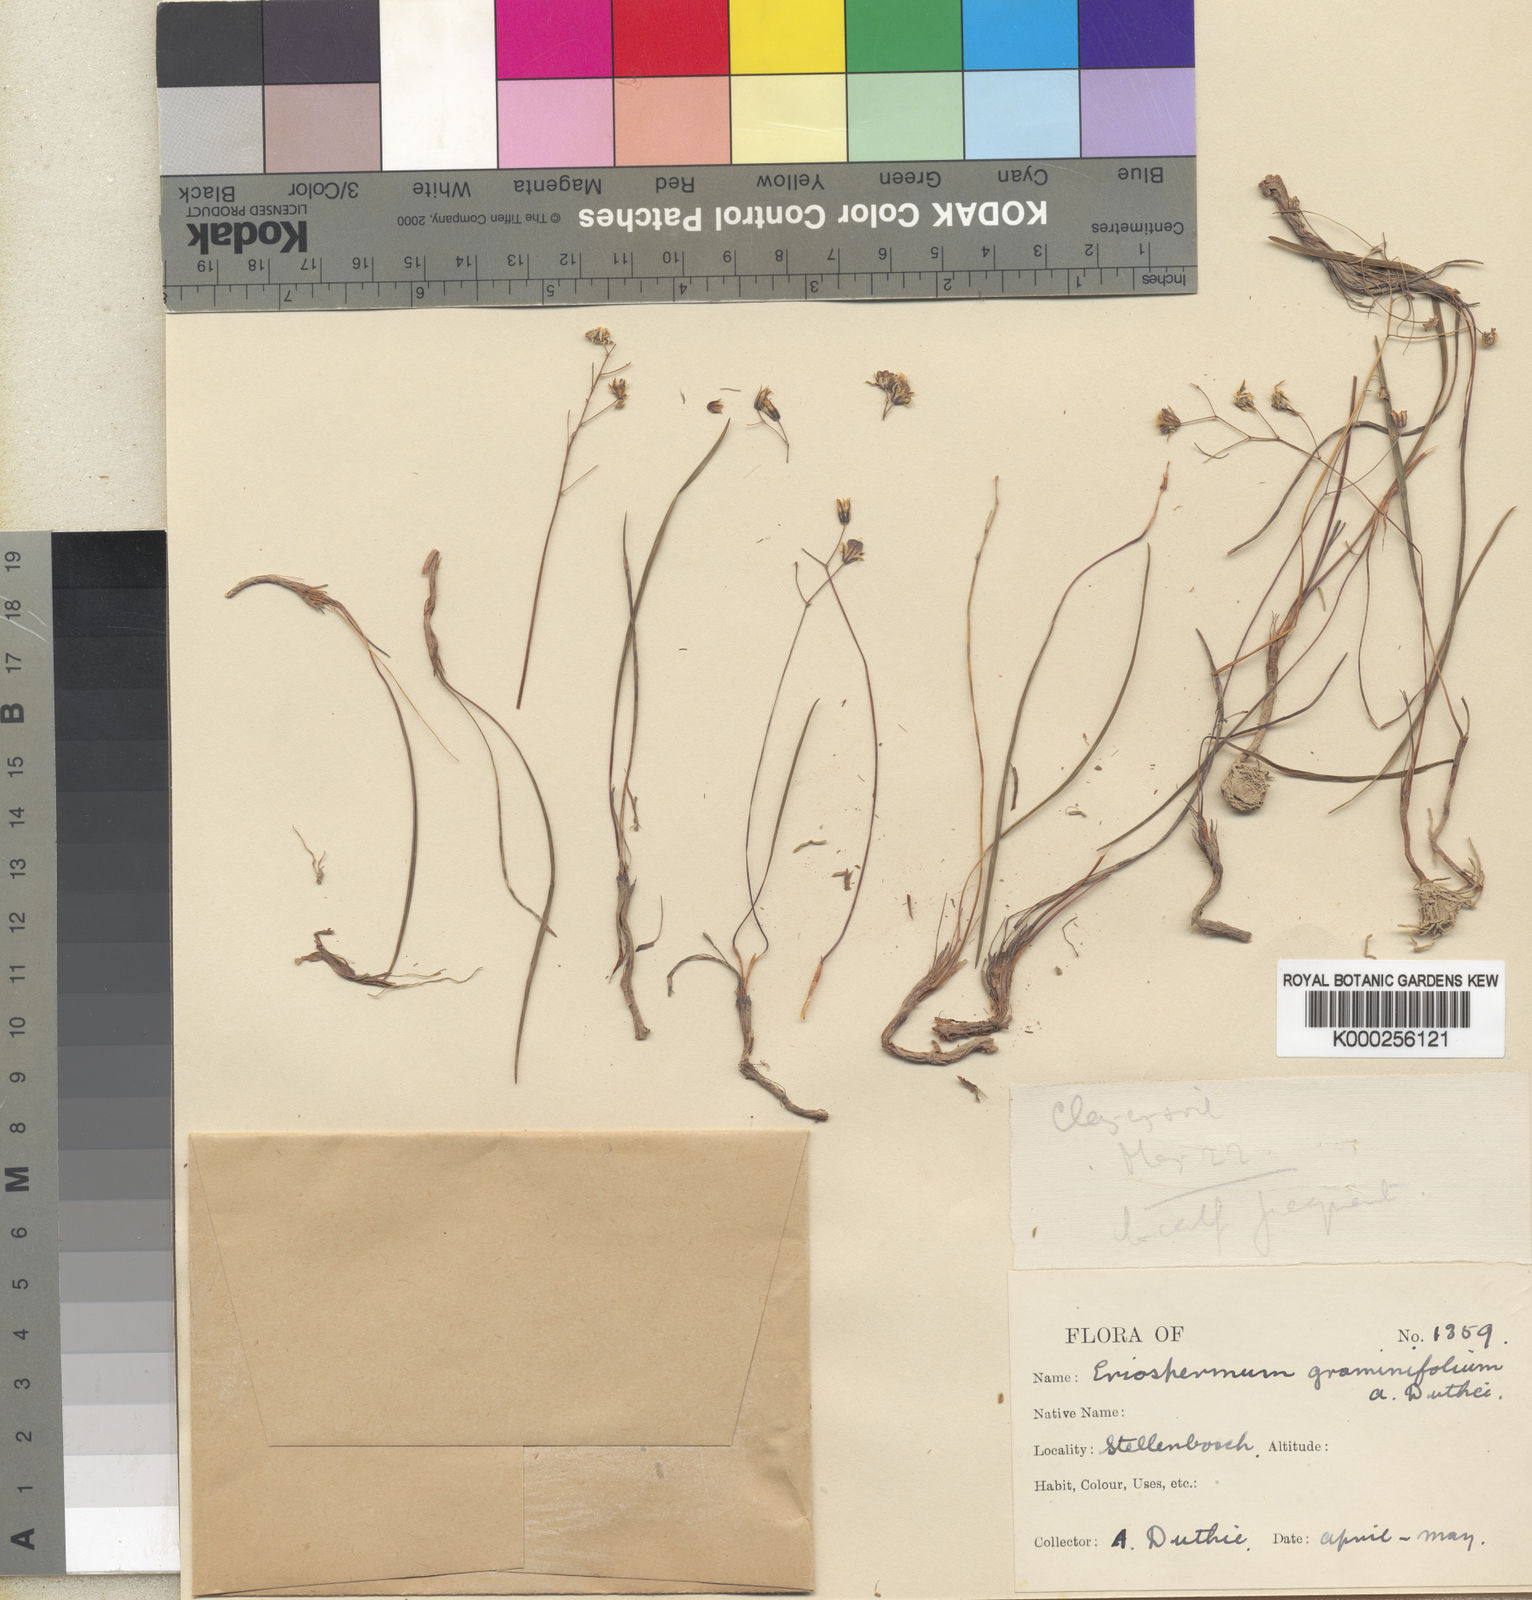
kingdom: Plantae
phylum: Tracheophyta
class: Liliopsida
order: Asparagales
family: Asparagaceae
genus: Eriospermum
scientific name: Eriospermum graminifolium
